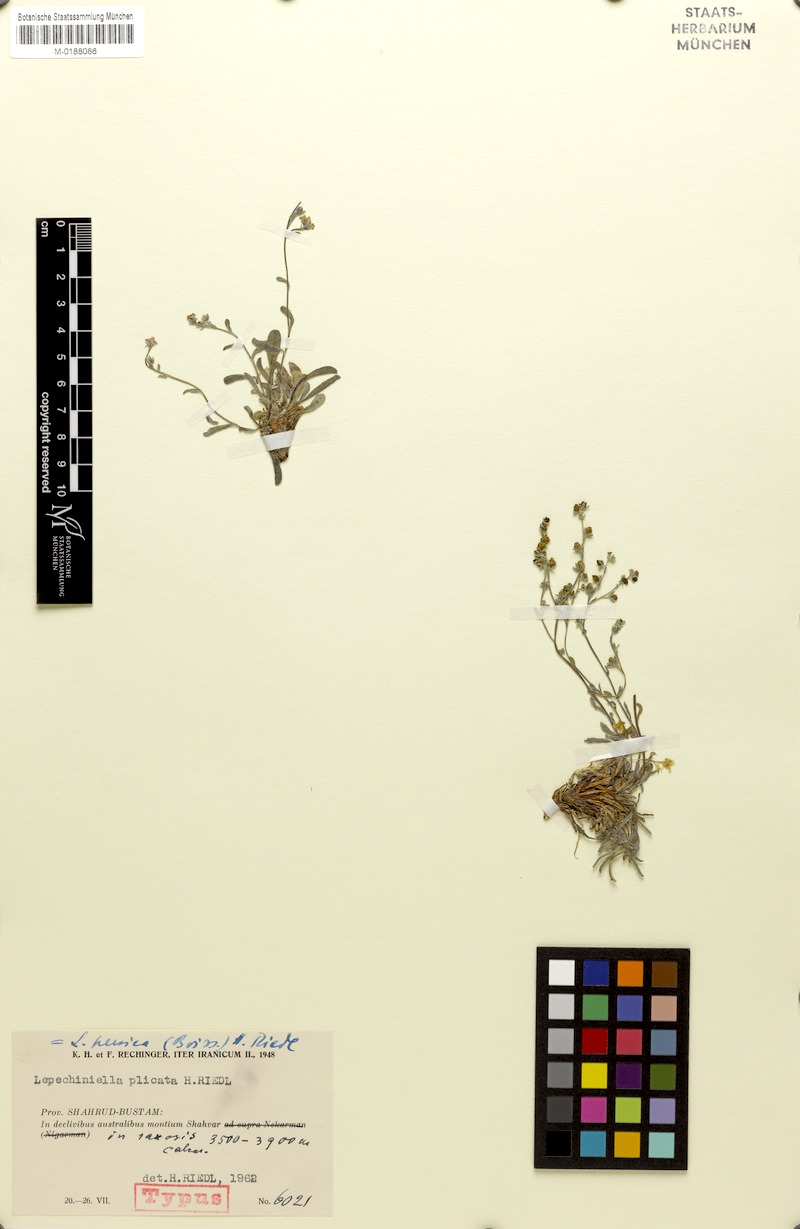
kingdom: Plantae
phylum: Tracheophyta
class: Magnoliopsida
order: Boraginales
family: Boraginaceae
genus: Lepechiniella
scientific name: Lepechiniella persica
